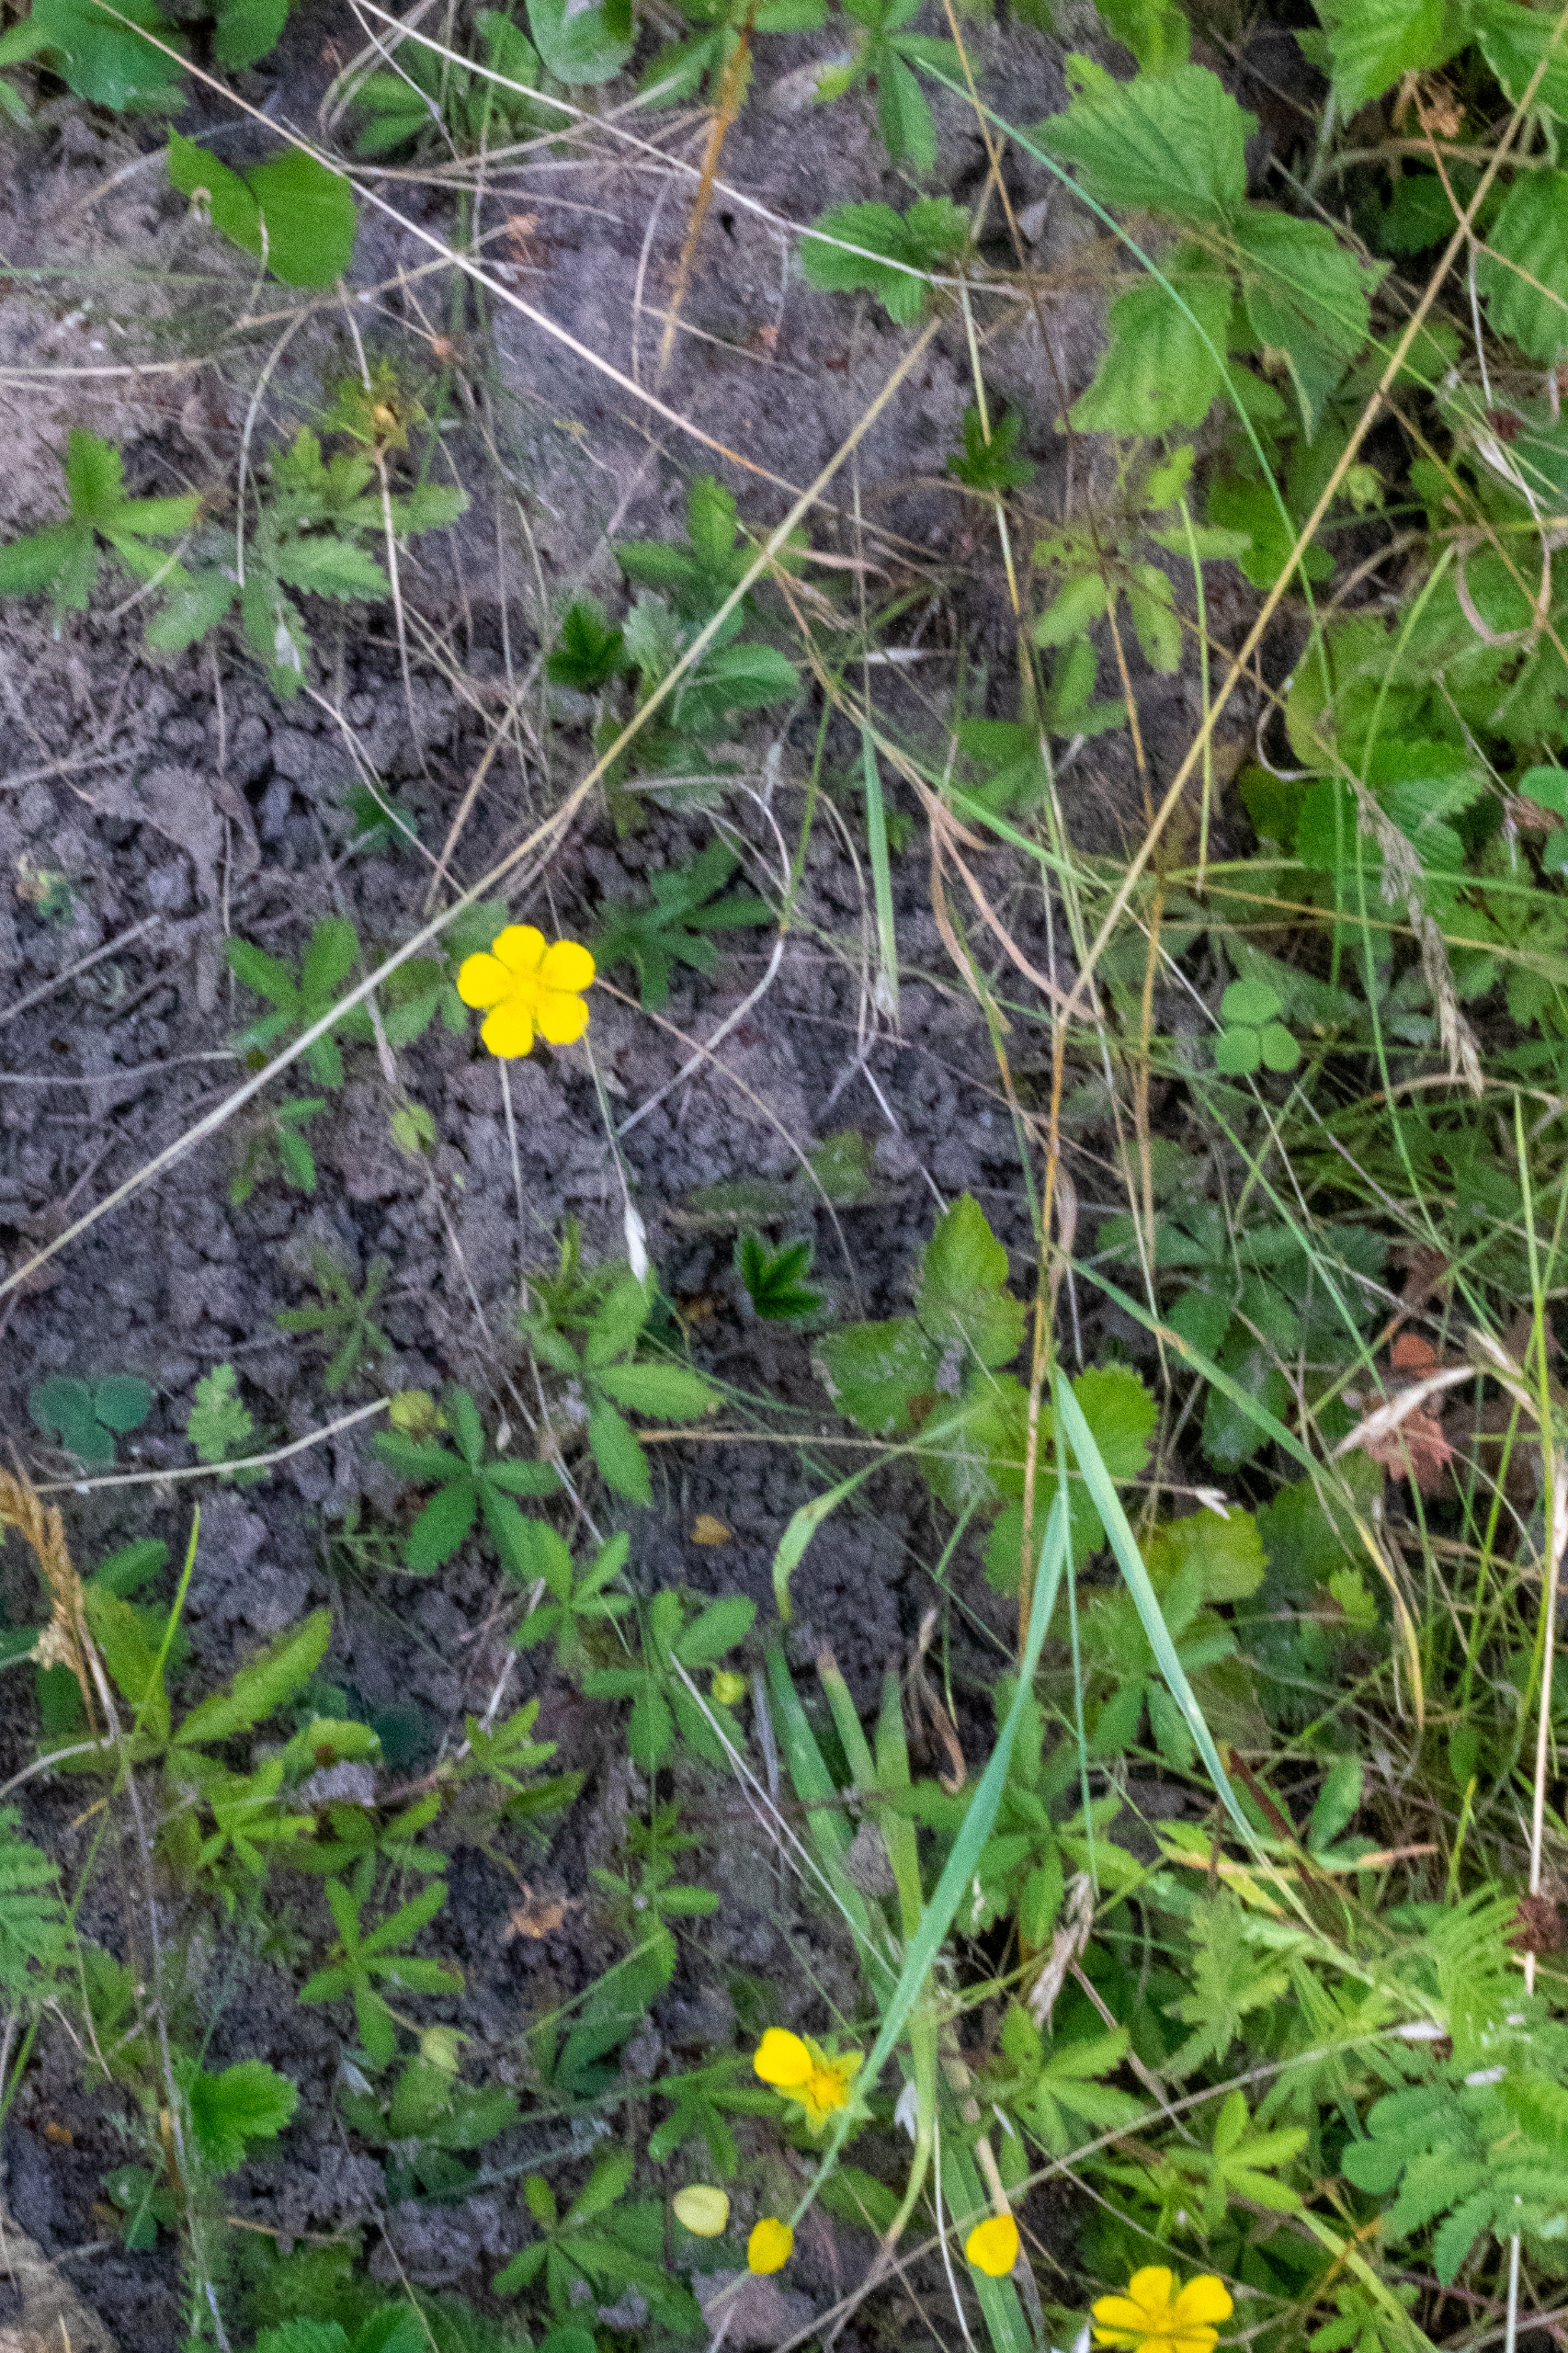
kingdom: Plantae
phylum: Tracheophyta
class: Magnoliopsida
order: Rosales
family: Rosaceae
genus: Potentilla
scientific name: Potentilla reptans
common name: Krybende potentil
